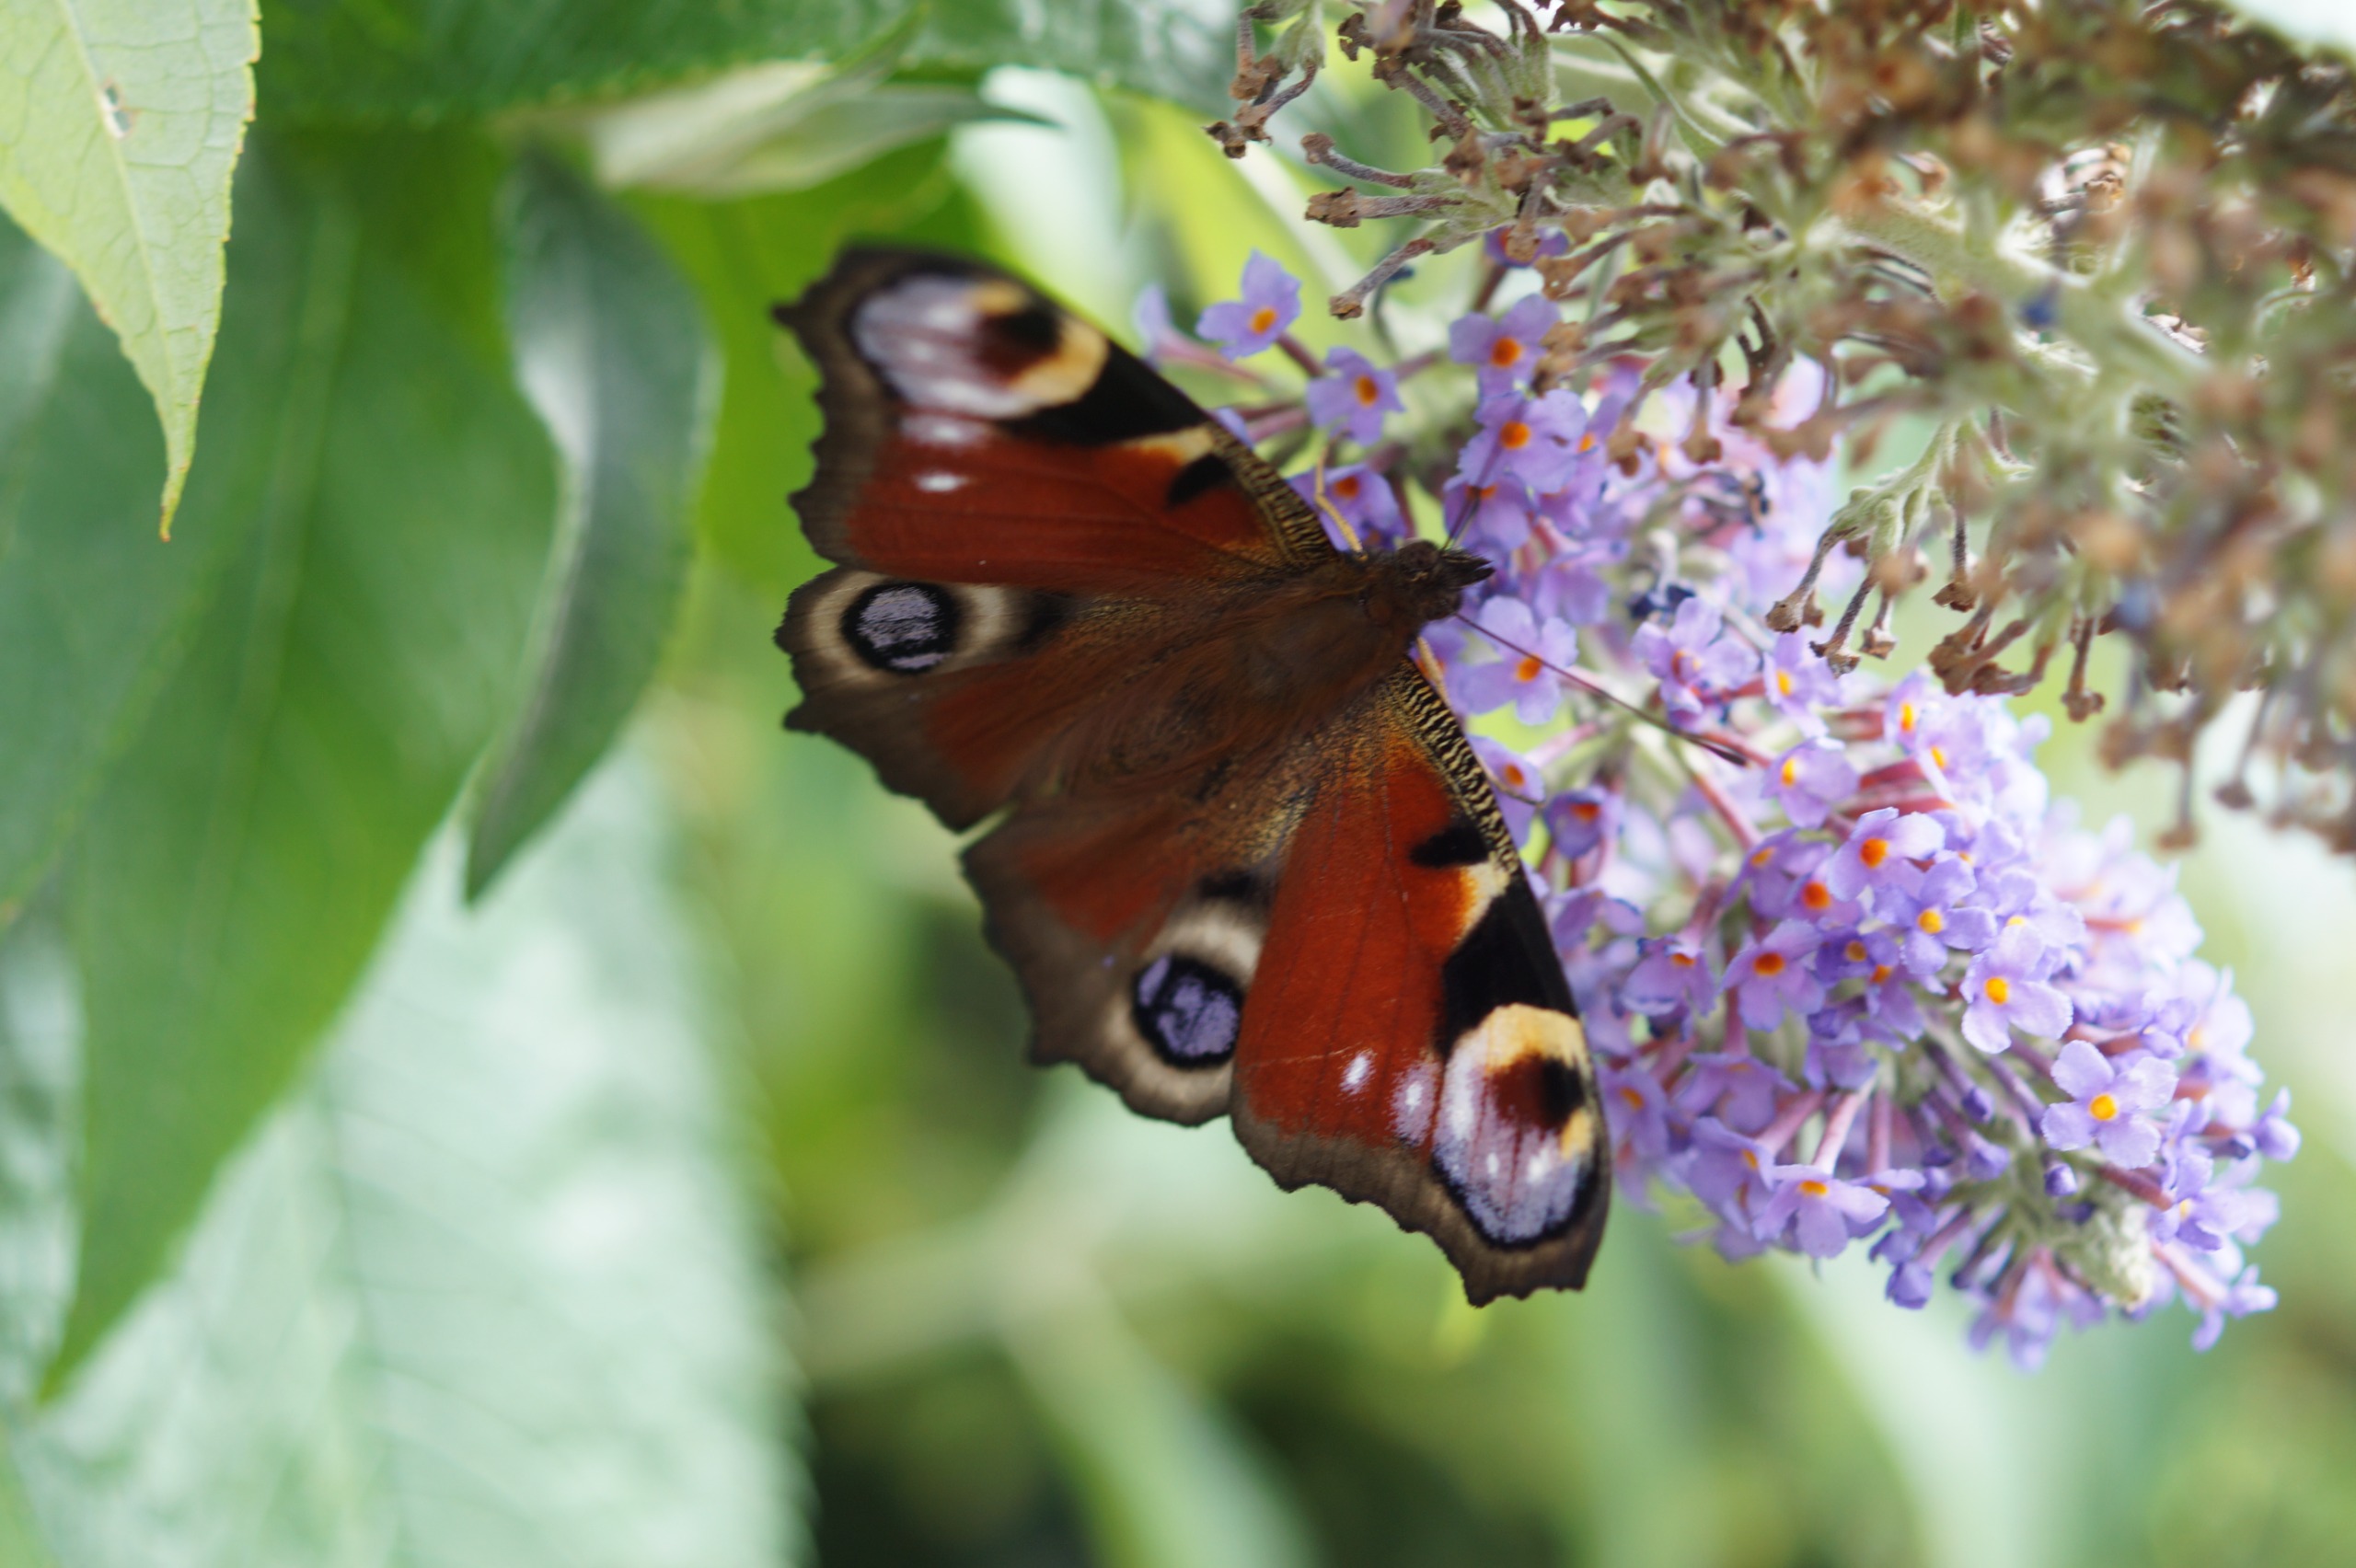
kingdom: Animalia
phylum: Arthropoda
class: Insecta
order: Lepidoptera
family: Nymphalidae
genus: Aglais
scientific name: Aglais io
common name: Dagpåfugleøje
